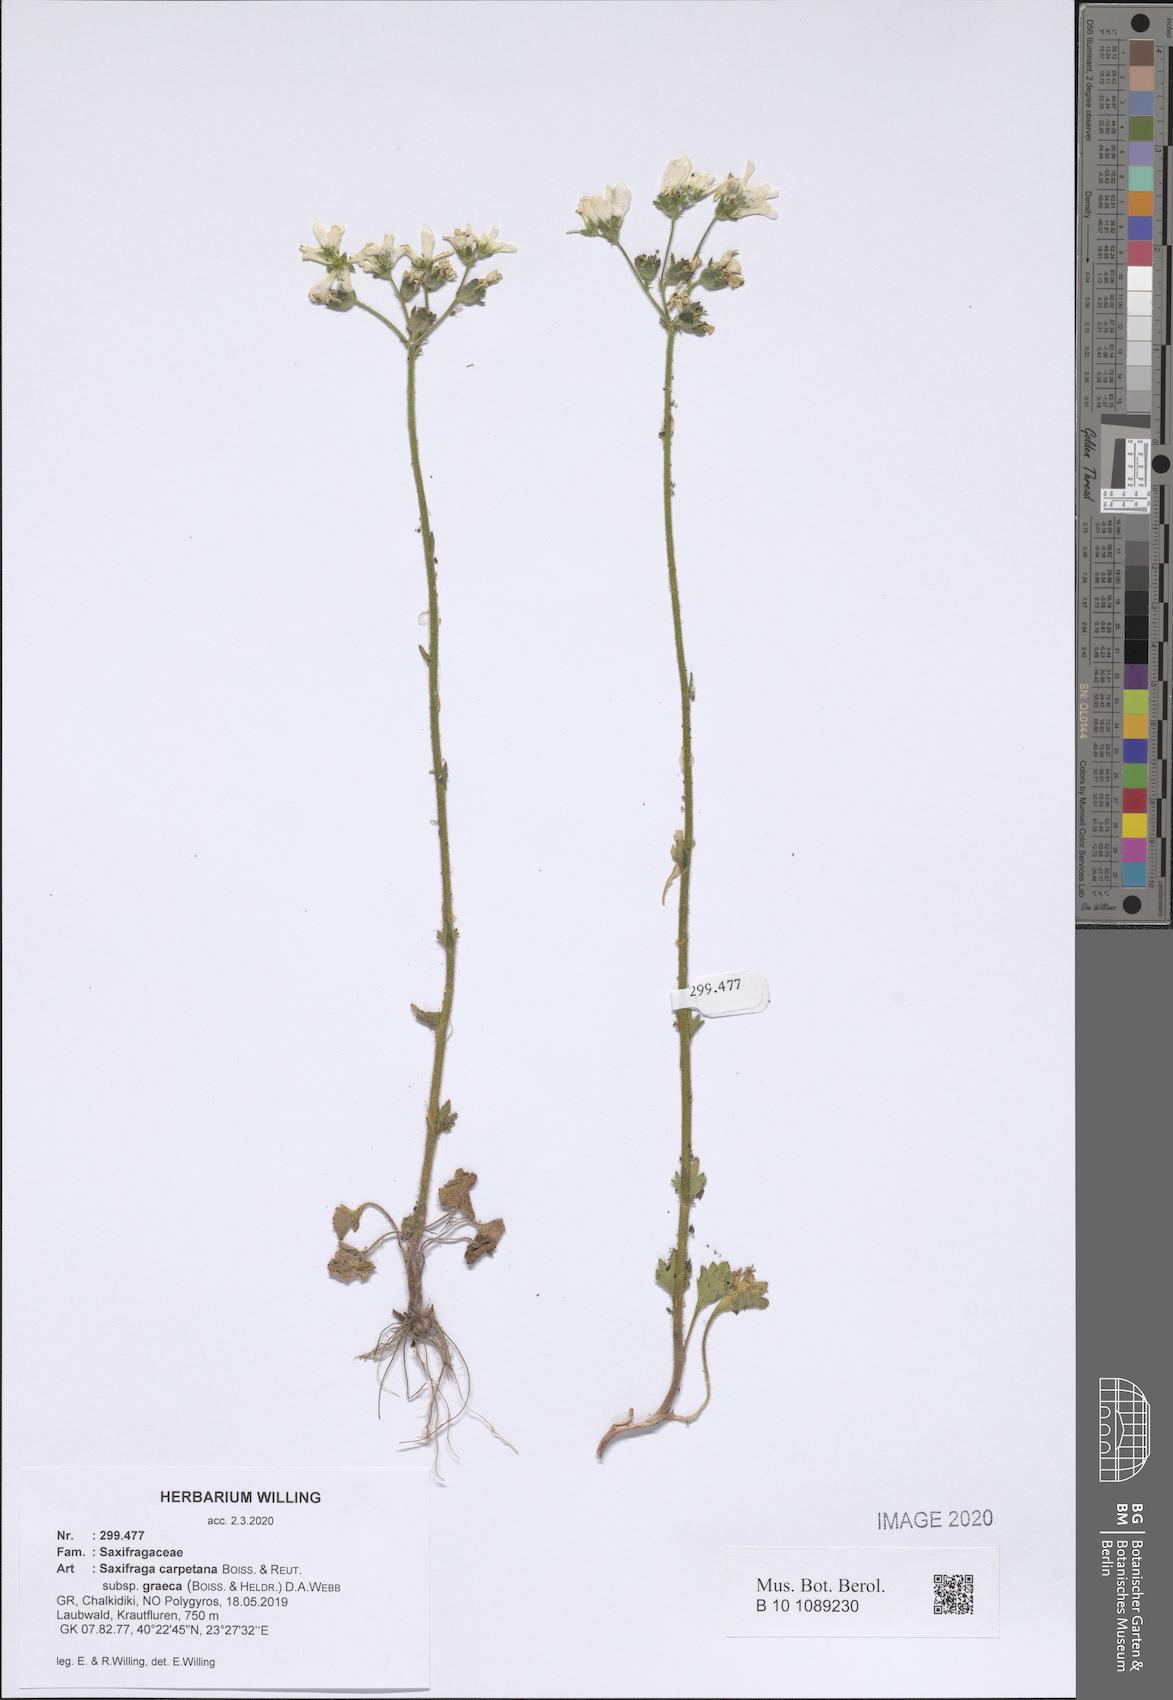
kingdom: Plantae
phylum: Tracheophyta
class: Magnoliopsida
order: Saxifragales
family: Saxifragaceae
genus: Saxifraga
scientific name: Saxifraga carpetana
